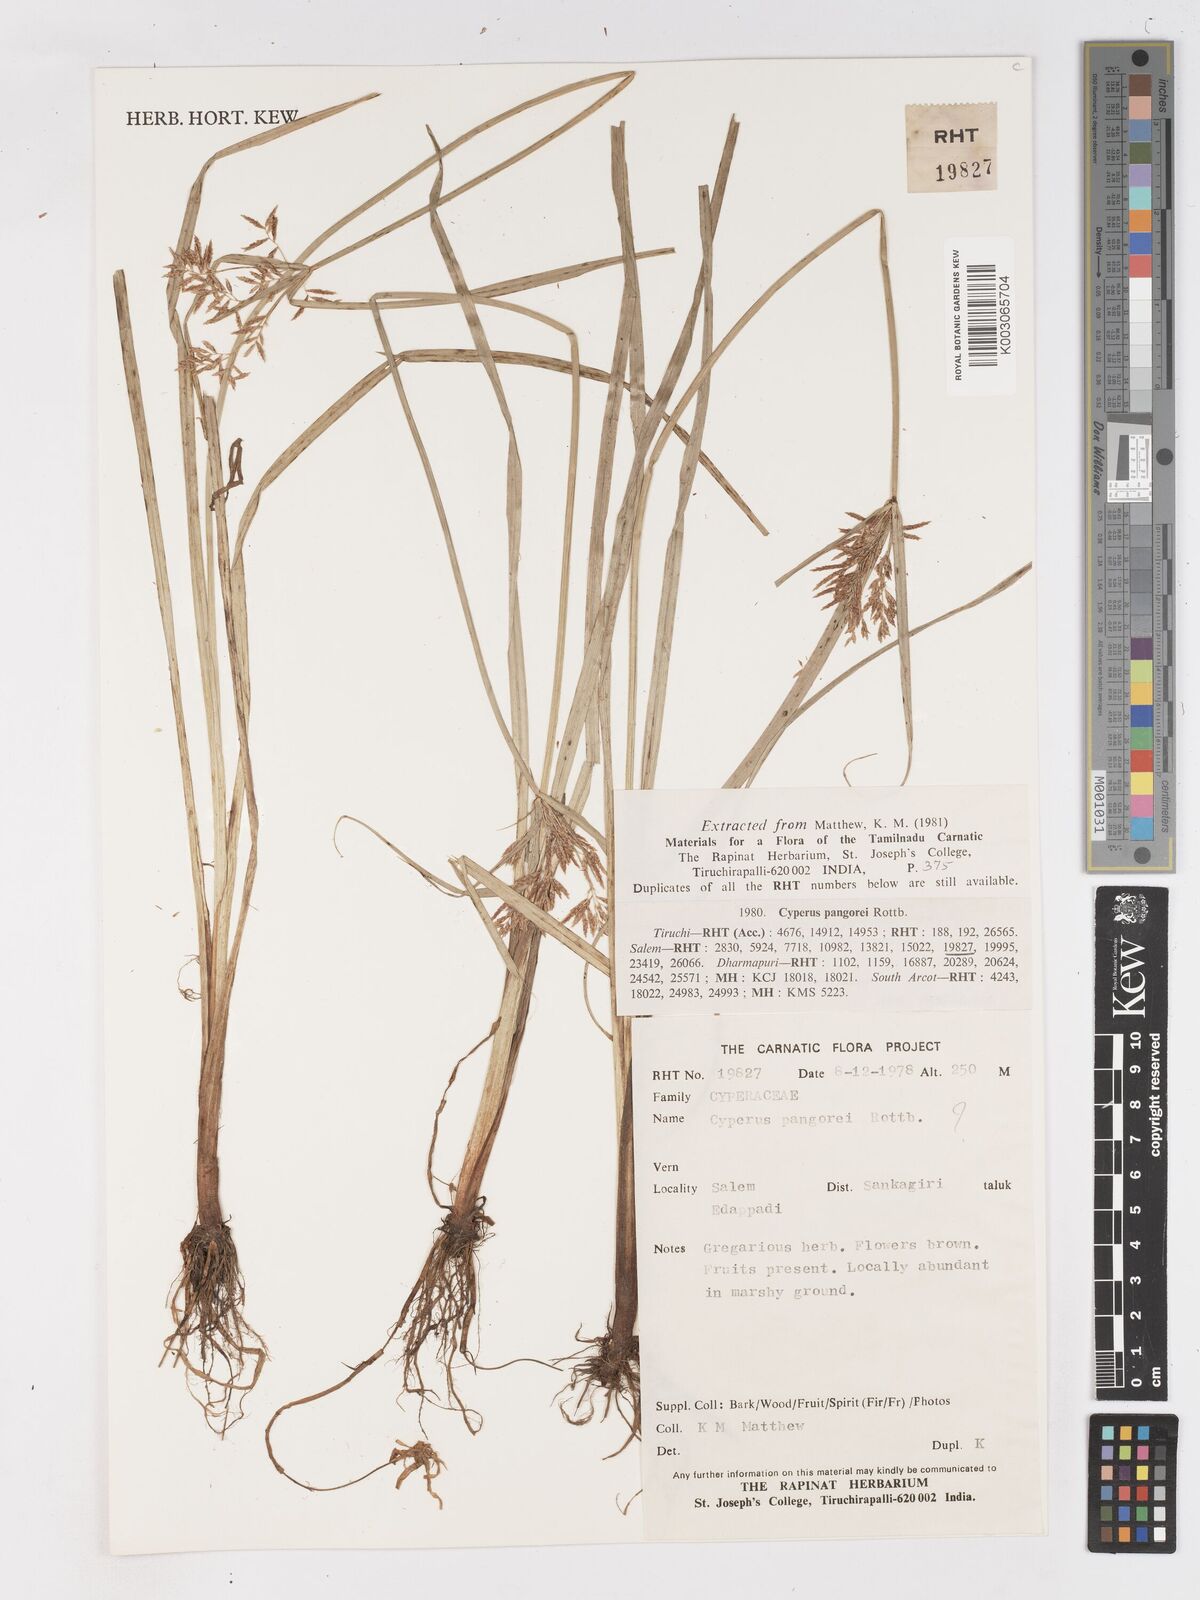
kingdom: Plantae
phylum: Tracheophyta
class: Liliopsida
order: Poales
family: Cyperaceae
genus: Cyperus
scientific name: Cyperus pangorei
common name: Mat sedge
